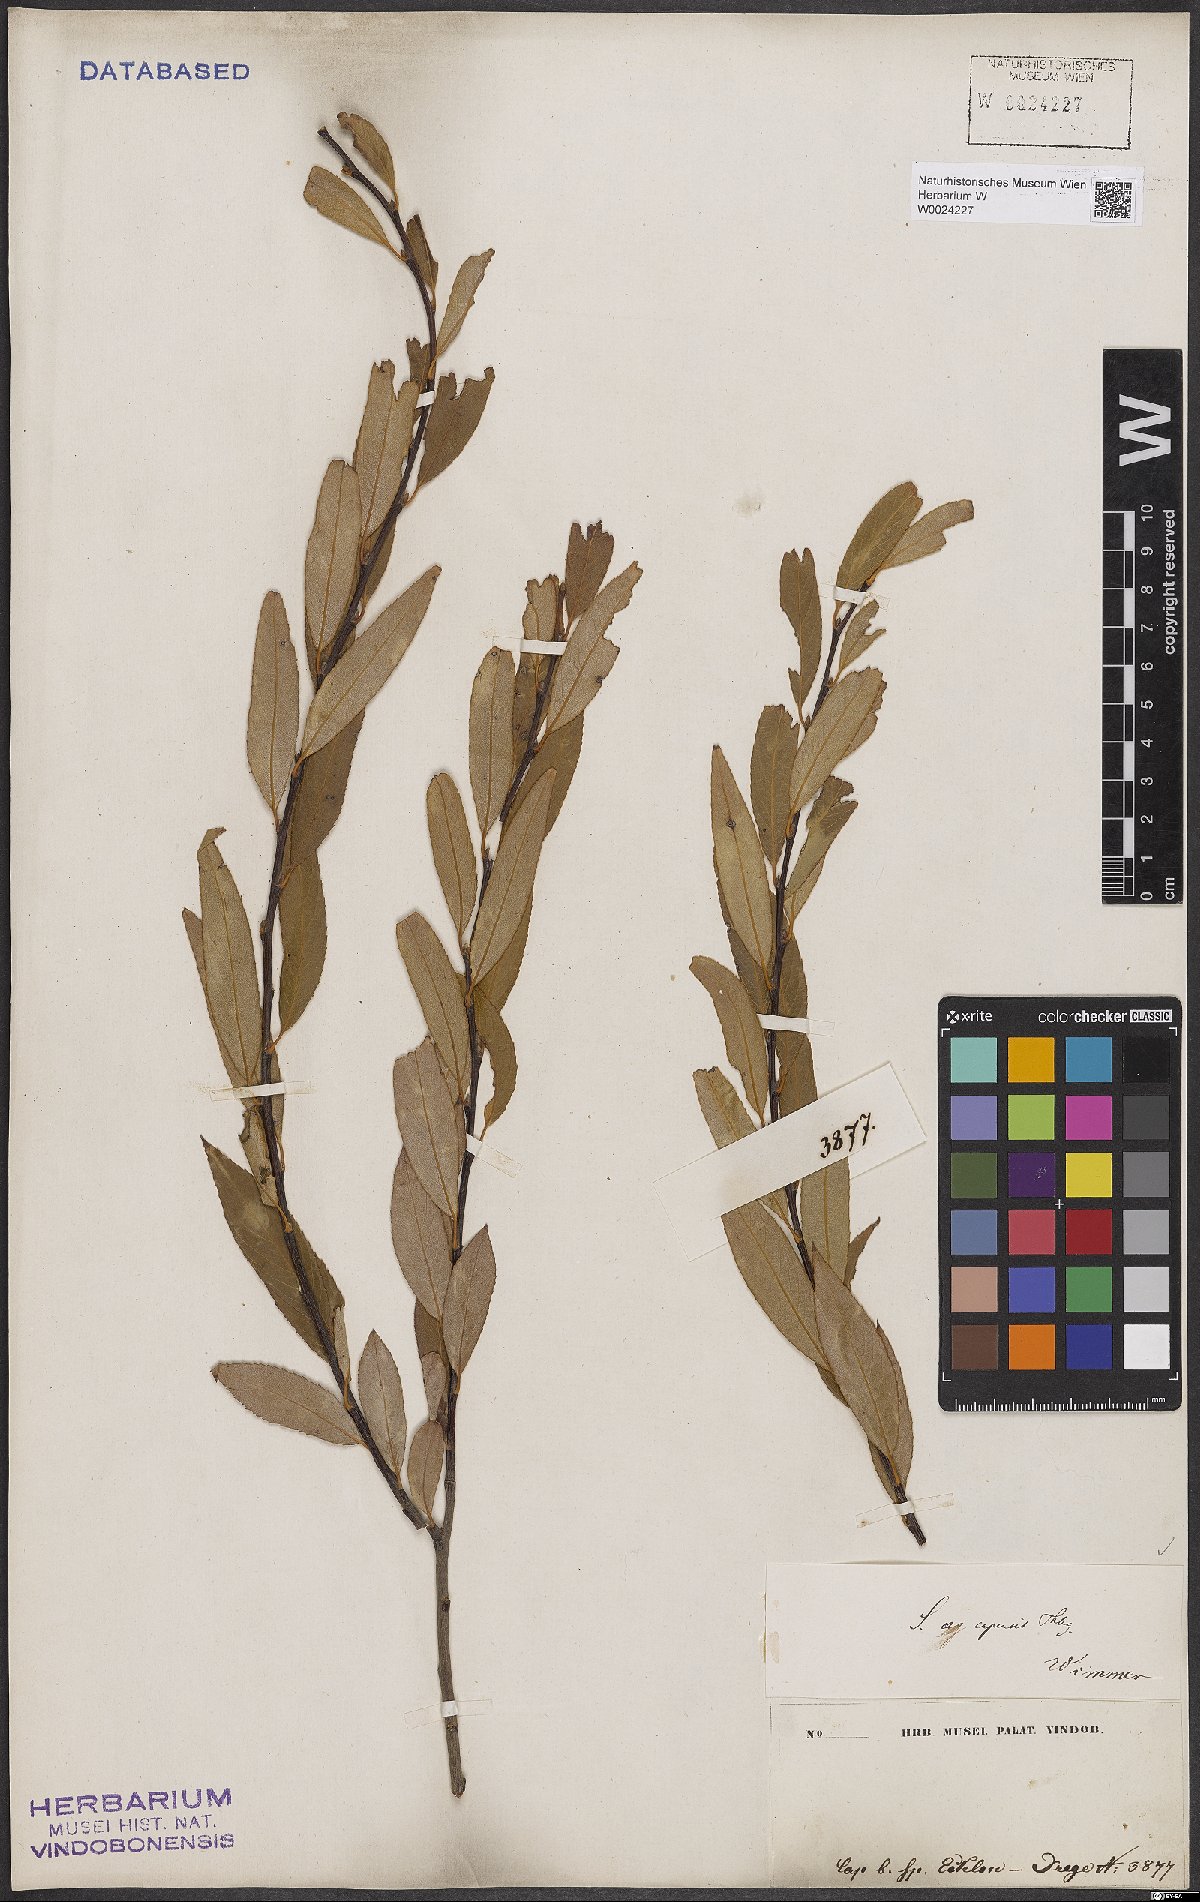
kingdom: Plantae
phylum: Tracheophyta
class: Magnoliopsida
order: Malpighiales
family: Salicaceae
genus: Salix
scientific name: Salix mucronata
